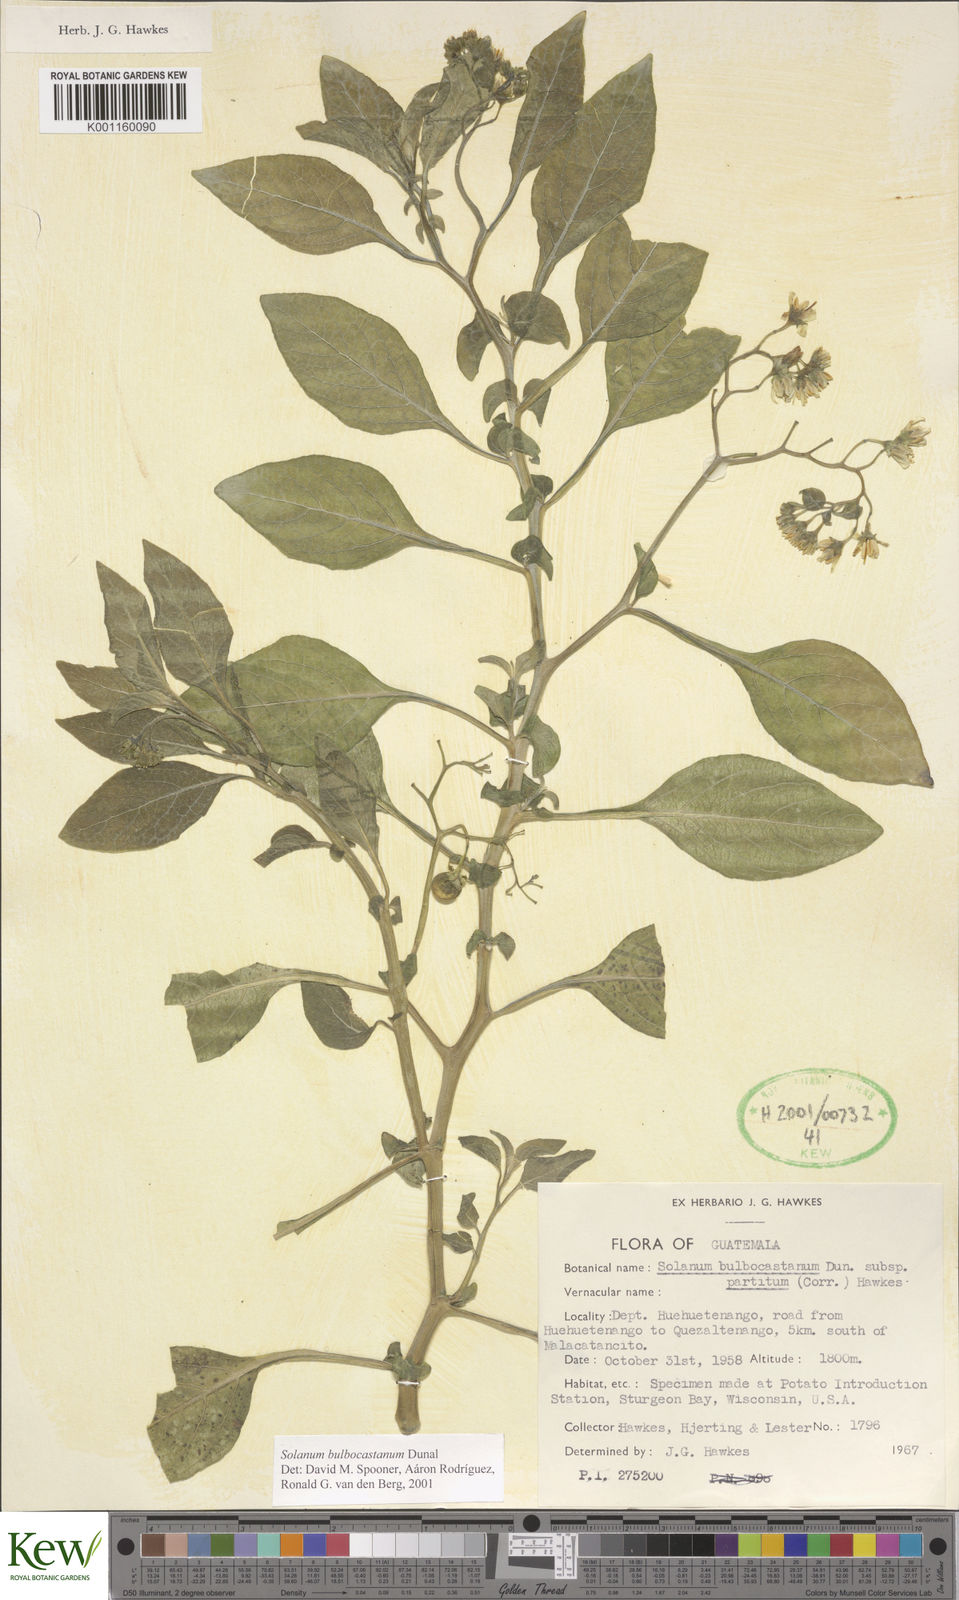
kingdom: Plantae
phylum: Tracheophyta
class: Magnoliopsida
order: Solanales
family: Solanaceae
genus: Solanum
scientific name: Solanum bulbocastanum
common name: Ornamental nightshade
